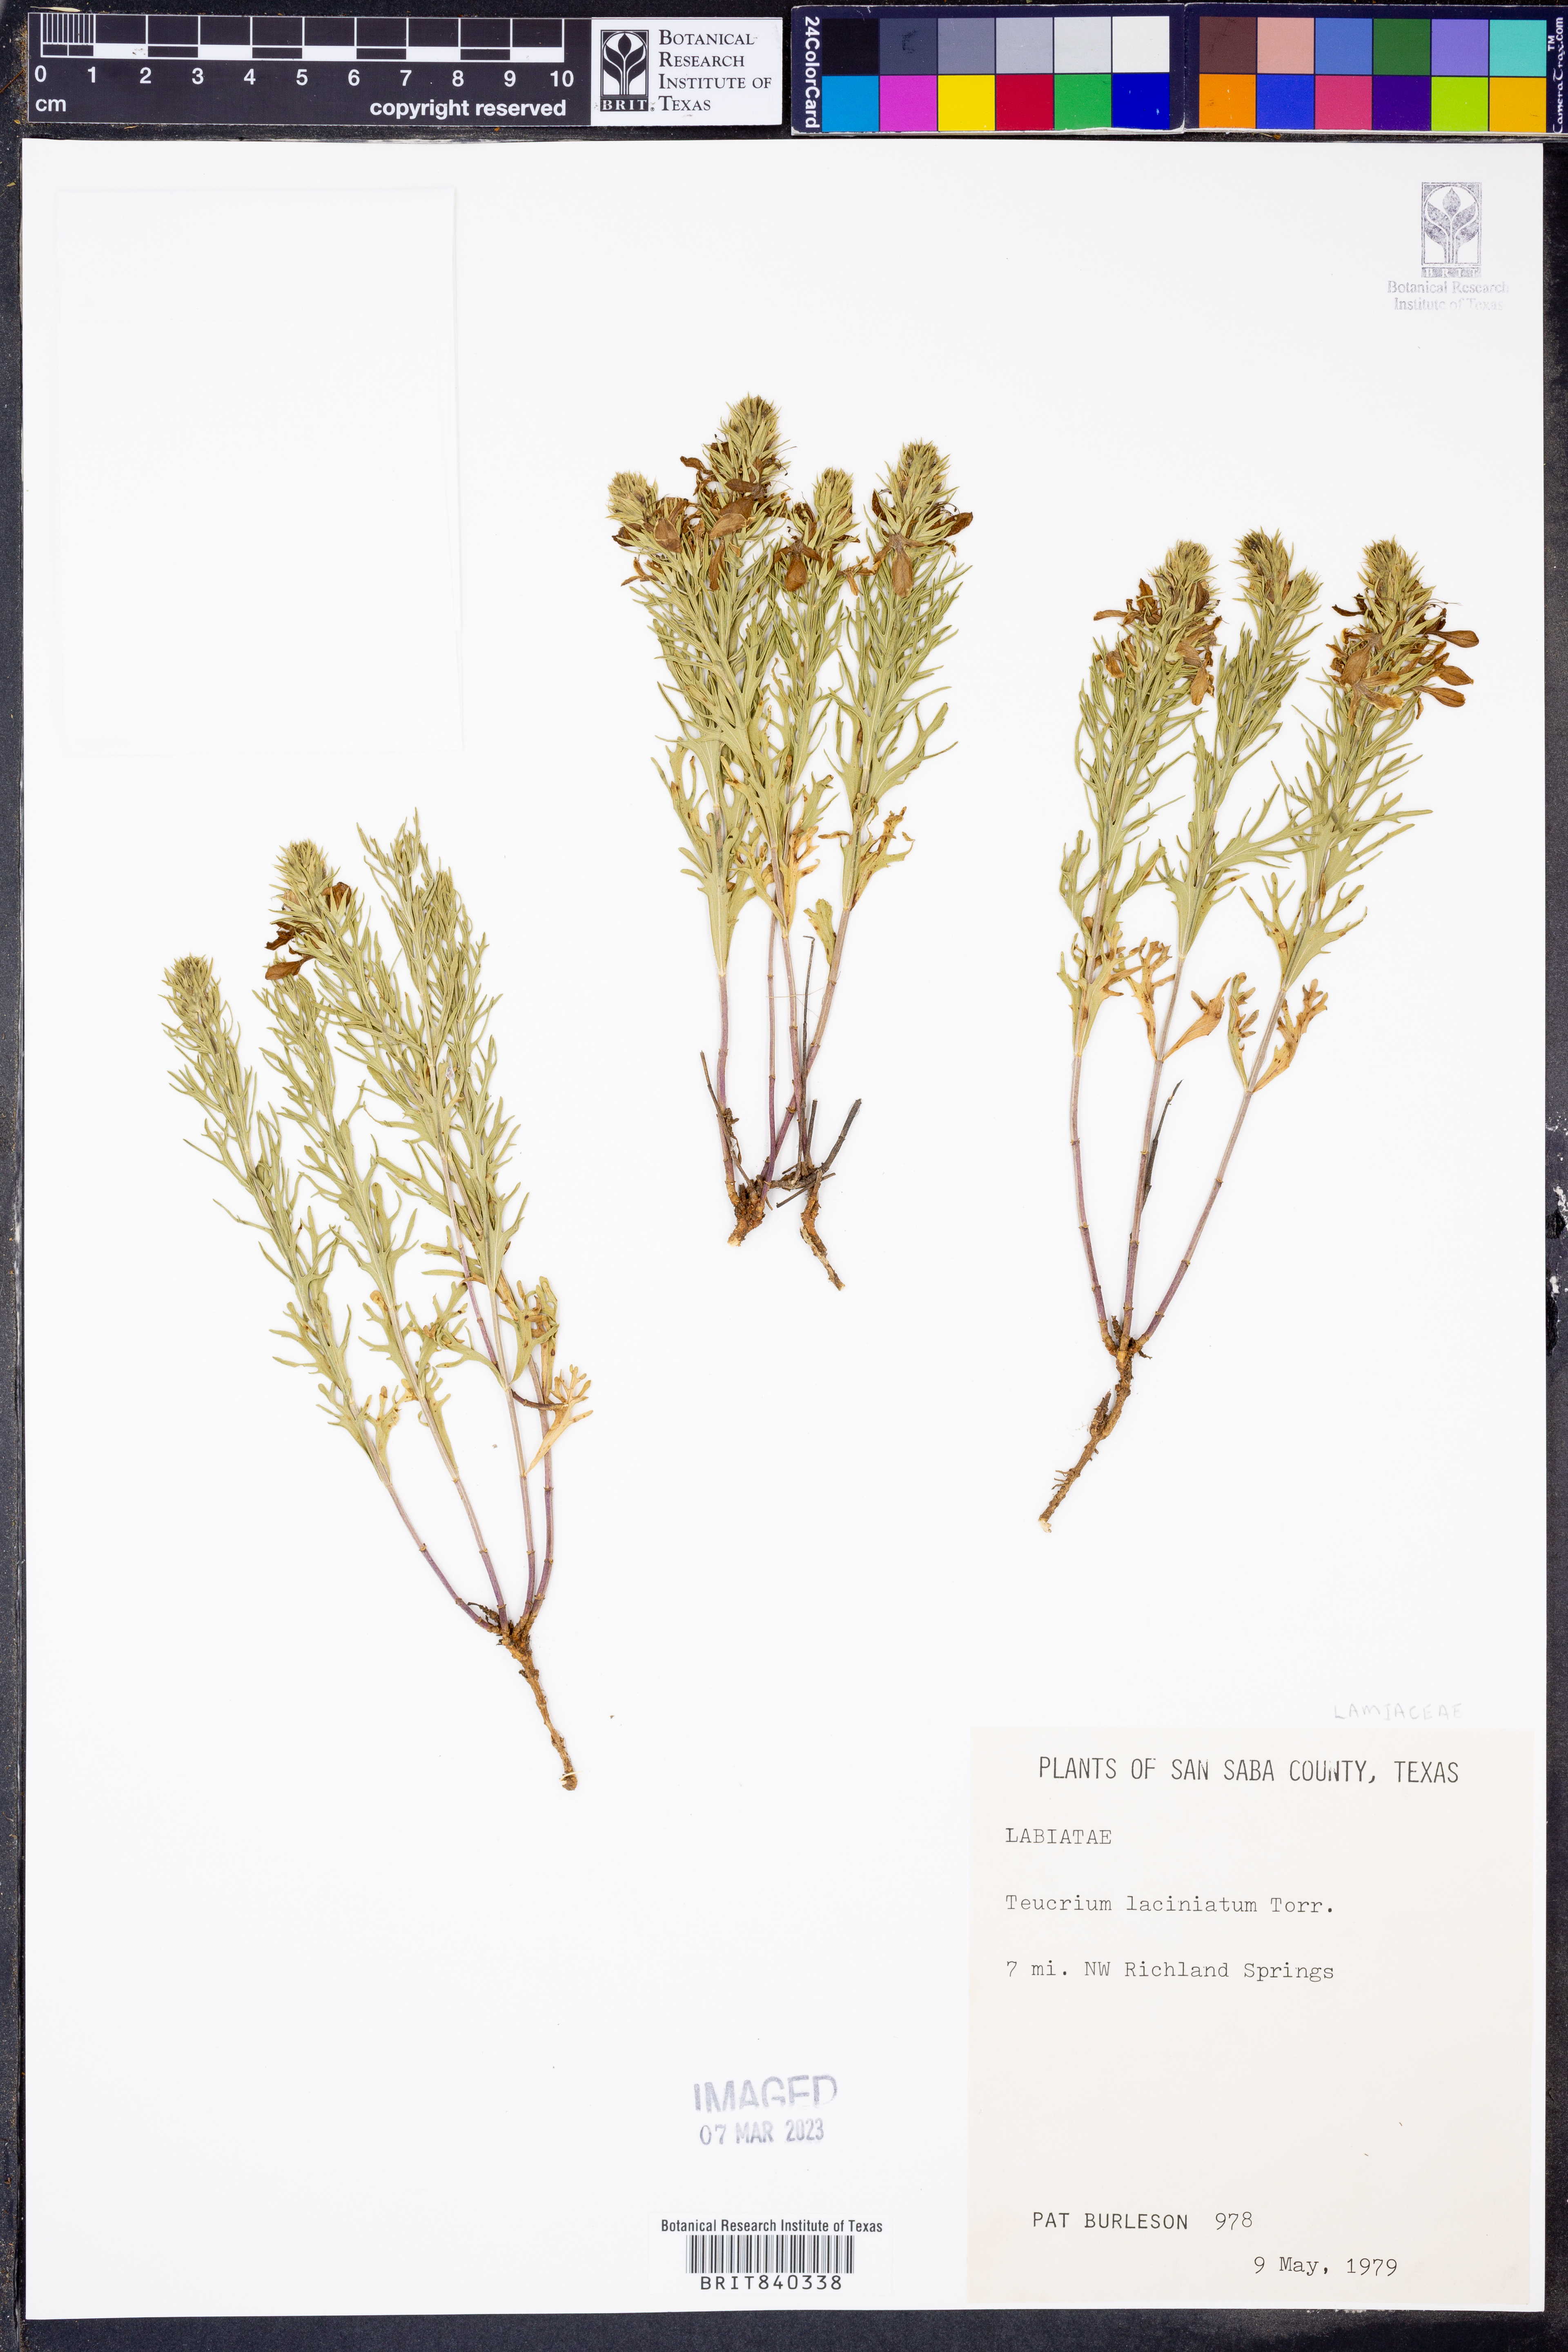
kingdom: Plantae
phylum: Tracheophyta
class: Magnoliopsida
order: Lamiales
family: Lamiaceae
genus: Teucrium
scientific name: Teucrium laciniatum
